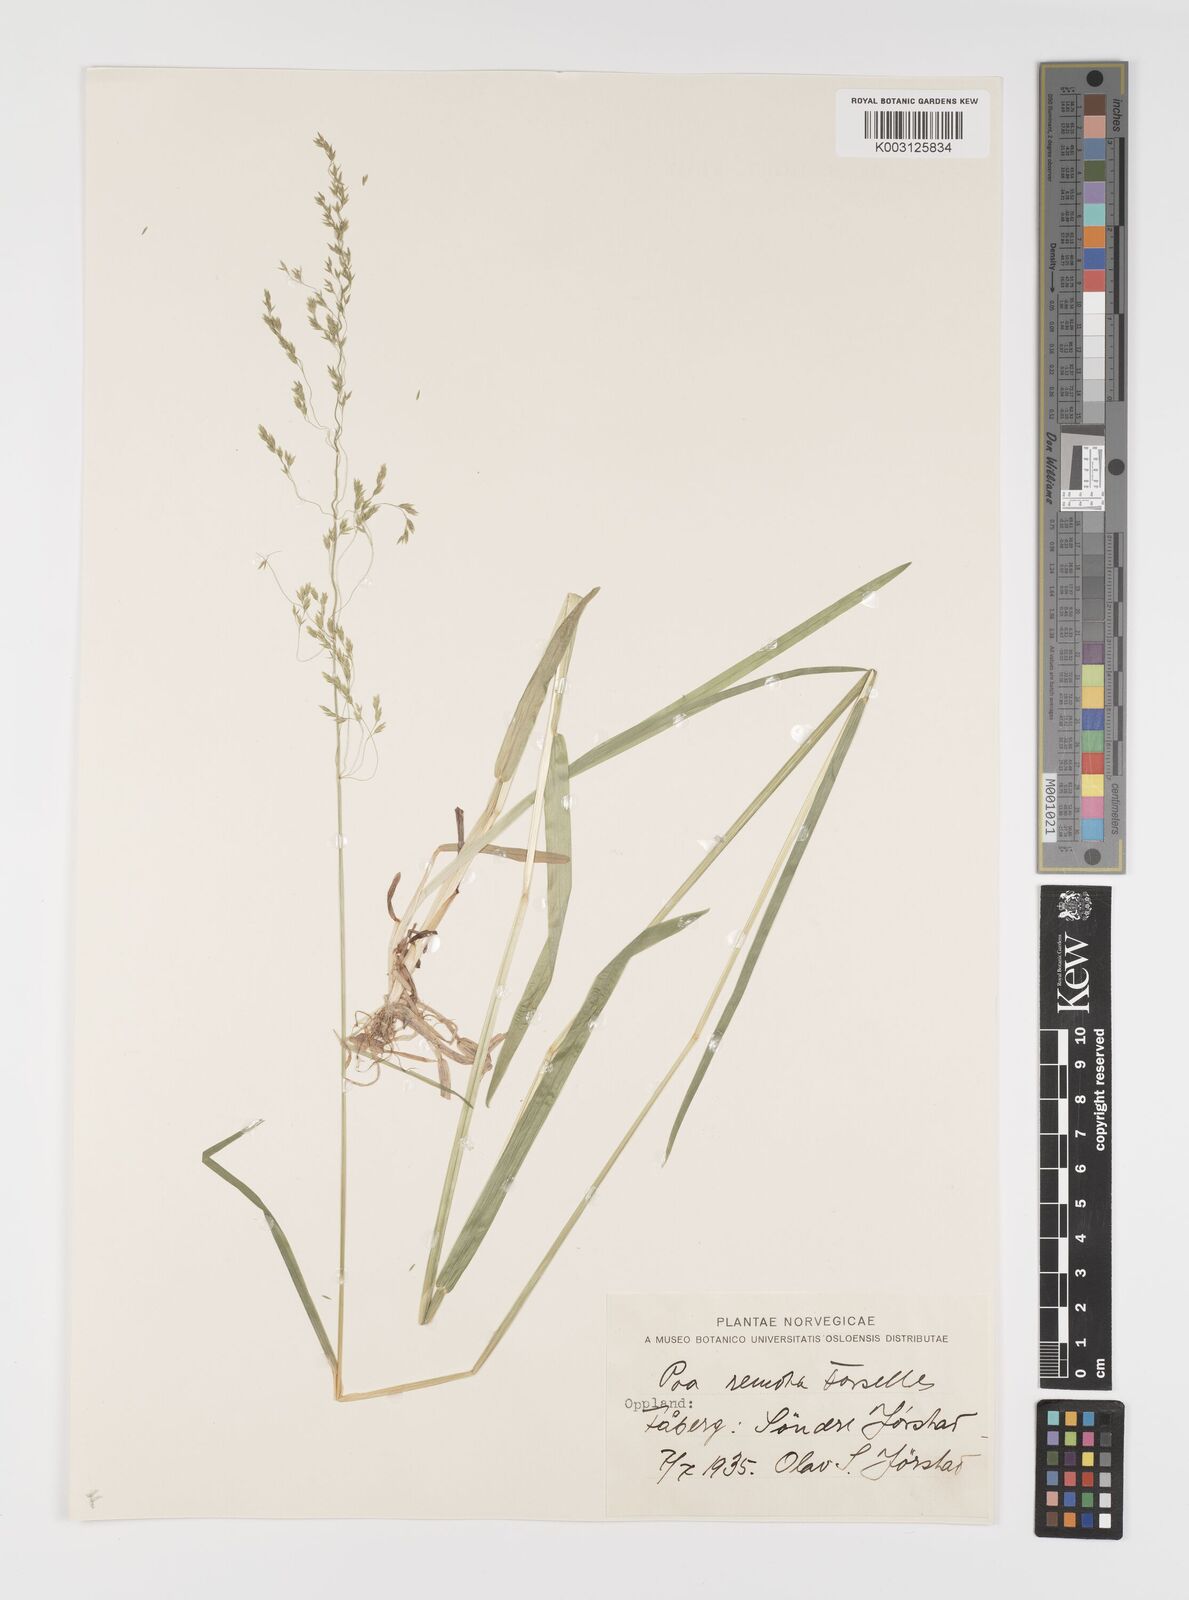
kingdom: Plantae
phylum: Tracheophyta
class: Liliopsida
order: Poales
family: Poaceae
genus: Poa
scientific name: Poa remota
